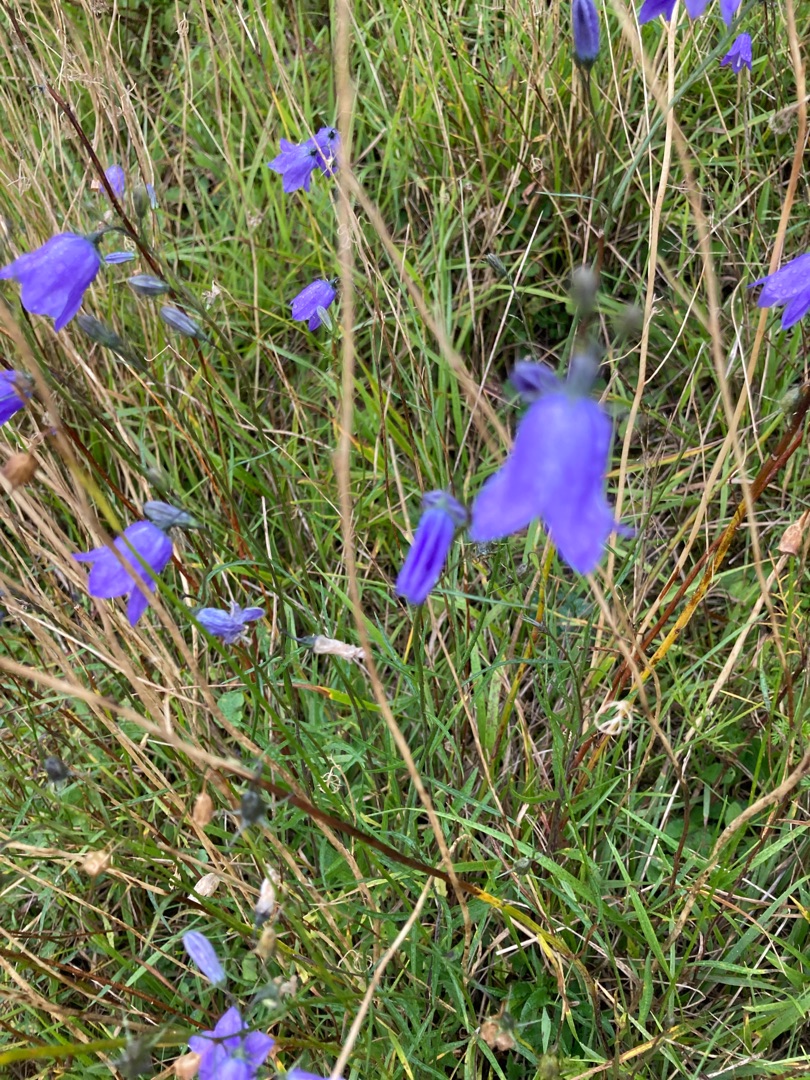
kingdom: Plantae
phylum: Tracheophyta
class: Magnoliopsida
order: Asterales
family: Campanulaceae
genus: Campanula
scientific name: Campanula rotundifolia
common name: Liden klokke
